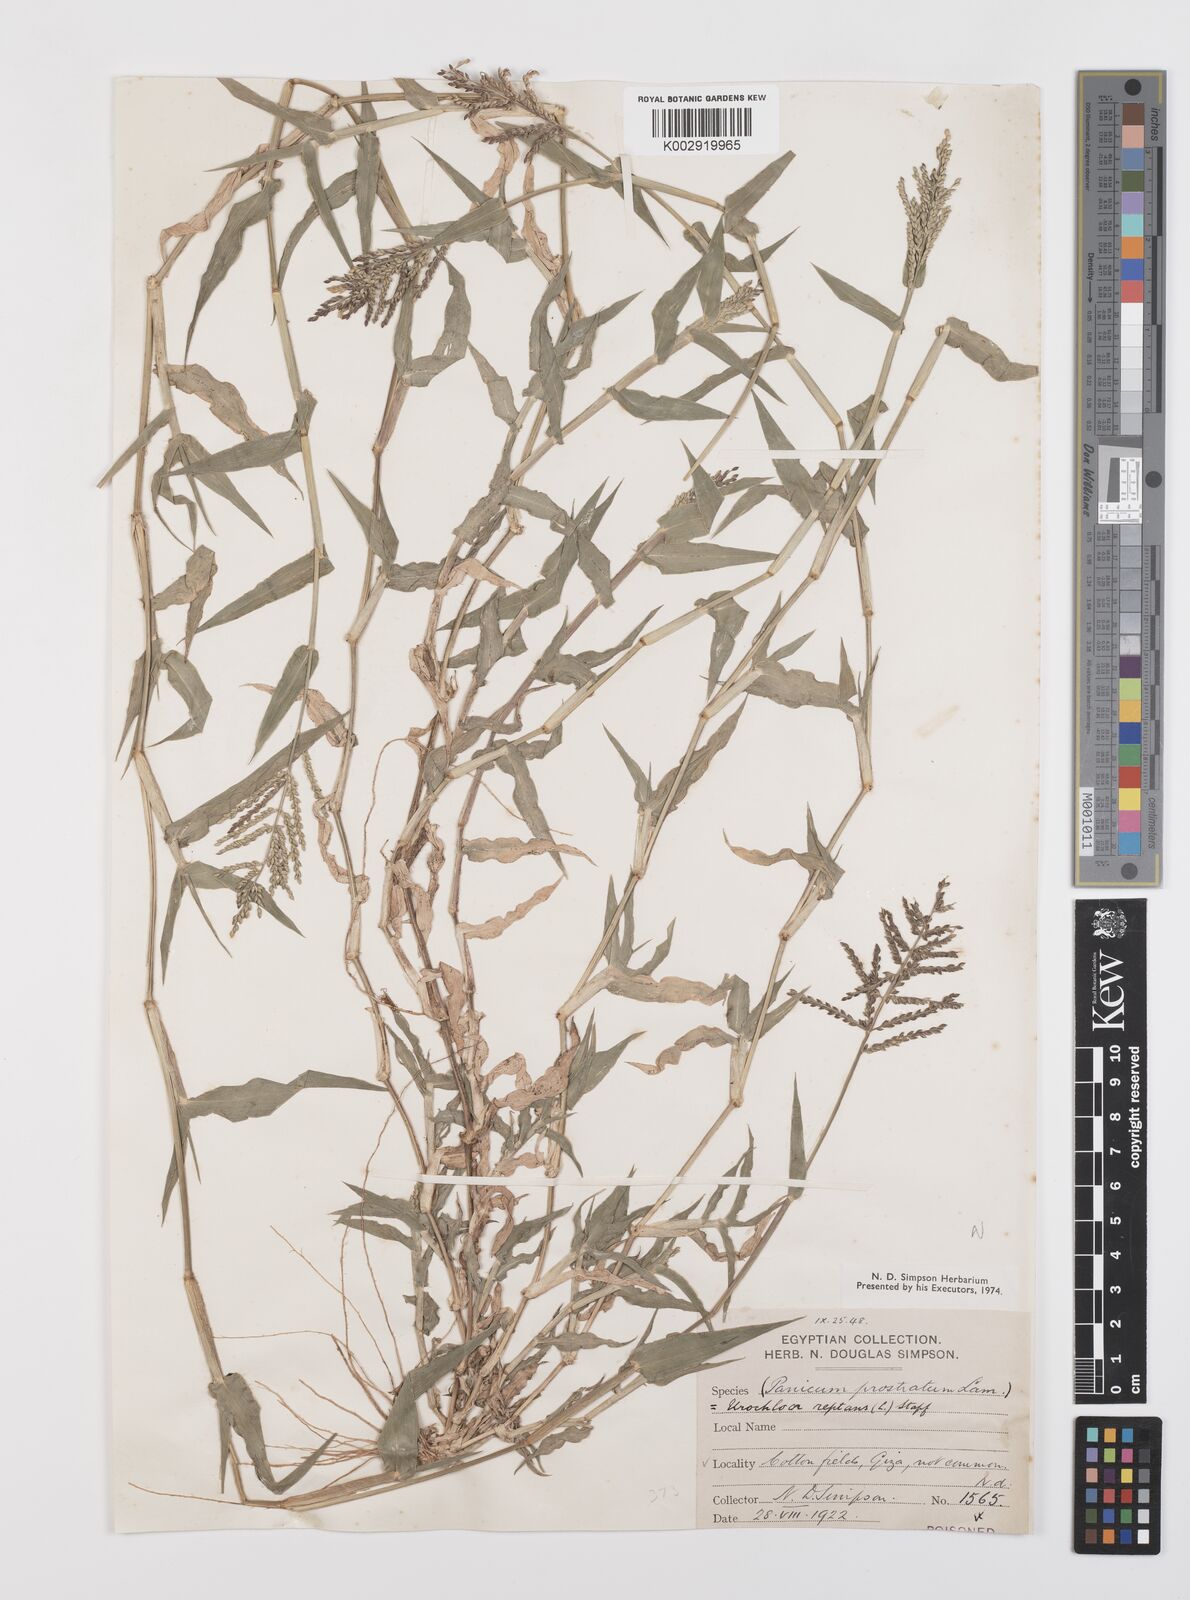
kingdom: Plantae
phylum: Tracheophyta
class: Liliopsida
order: Poales
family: Poaceae
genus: Urochloa
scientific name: Urochloa reptans
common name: Sprawling signalgrass
